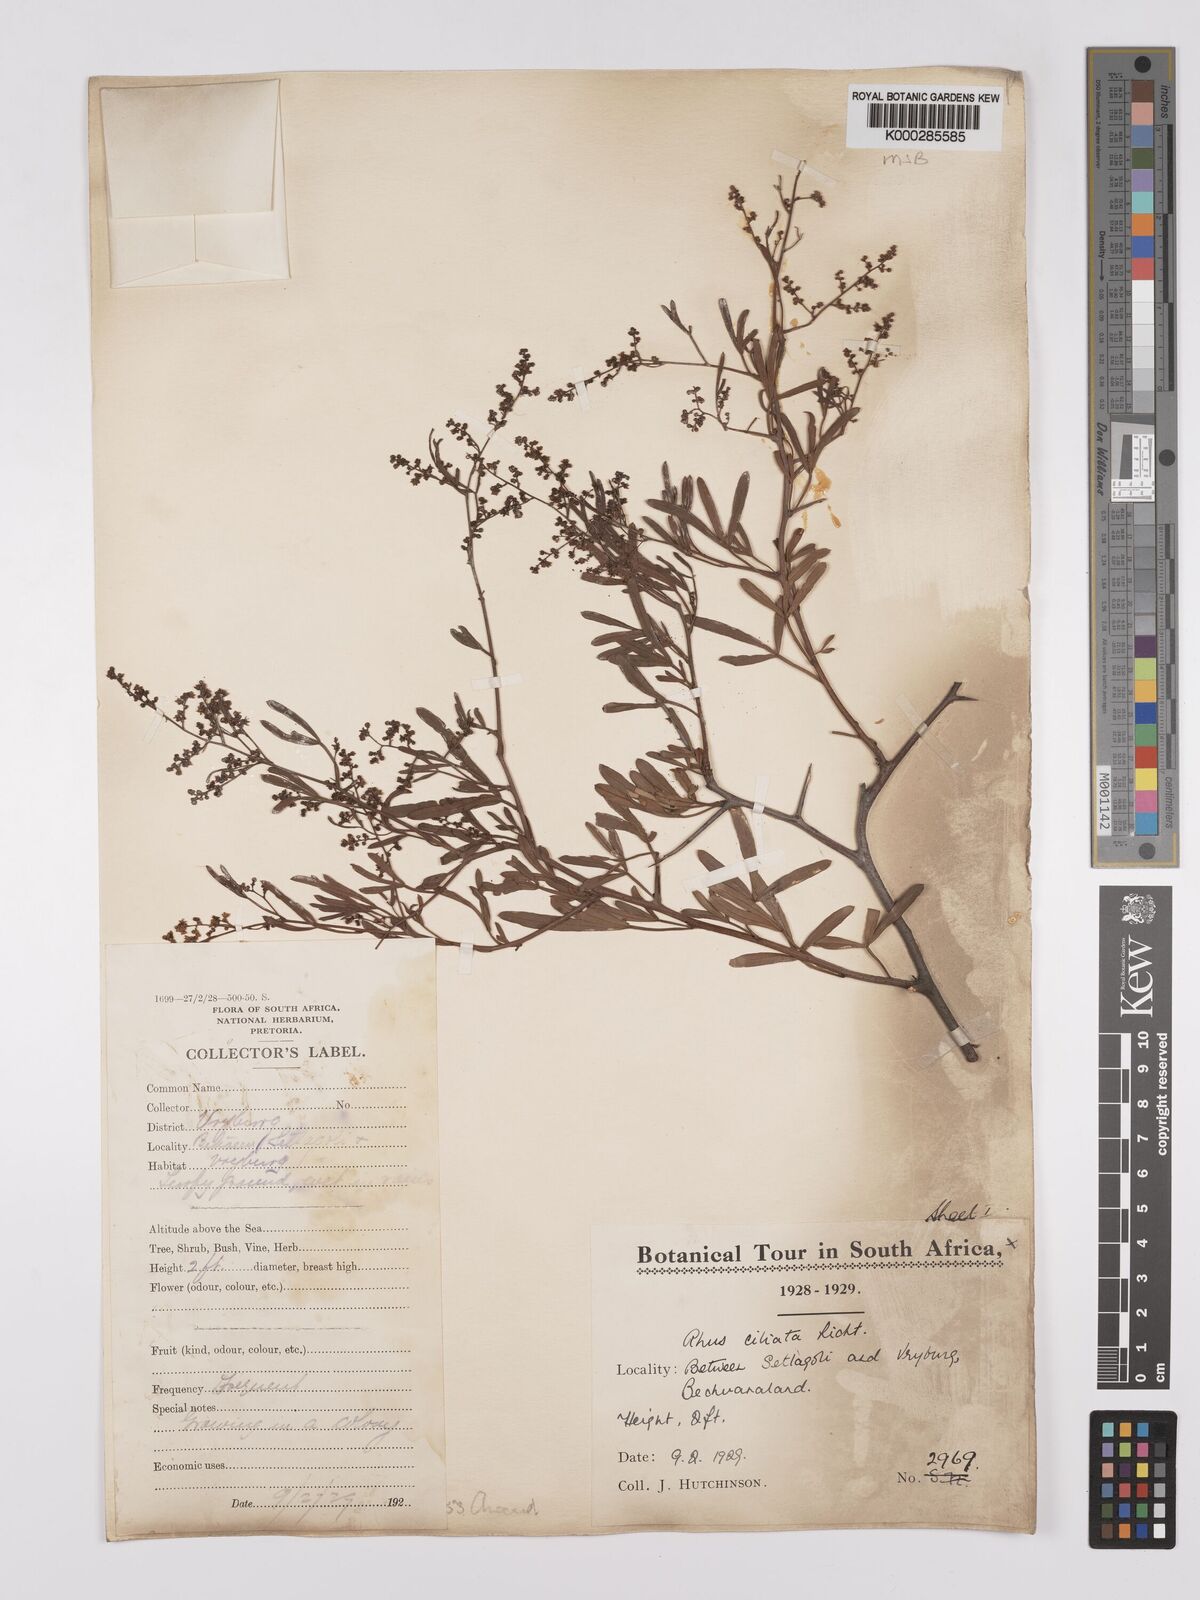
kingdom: Plantae
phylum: Tracheophyta
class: Magnoliopsida
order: Sapindales
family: Anacardiaceae
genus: Searsia
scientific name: Searsia ciliata
